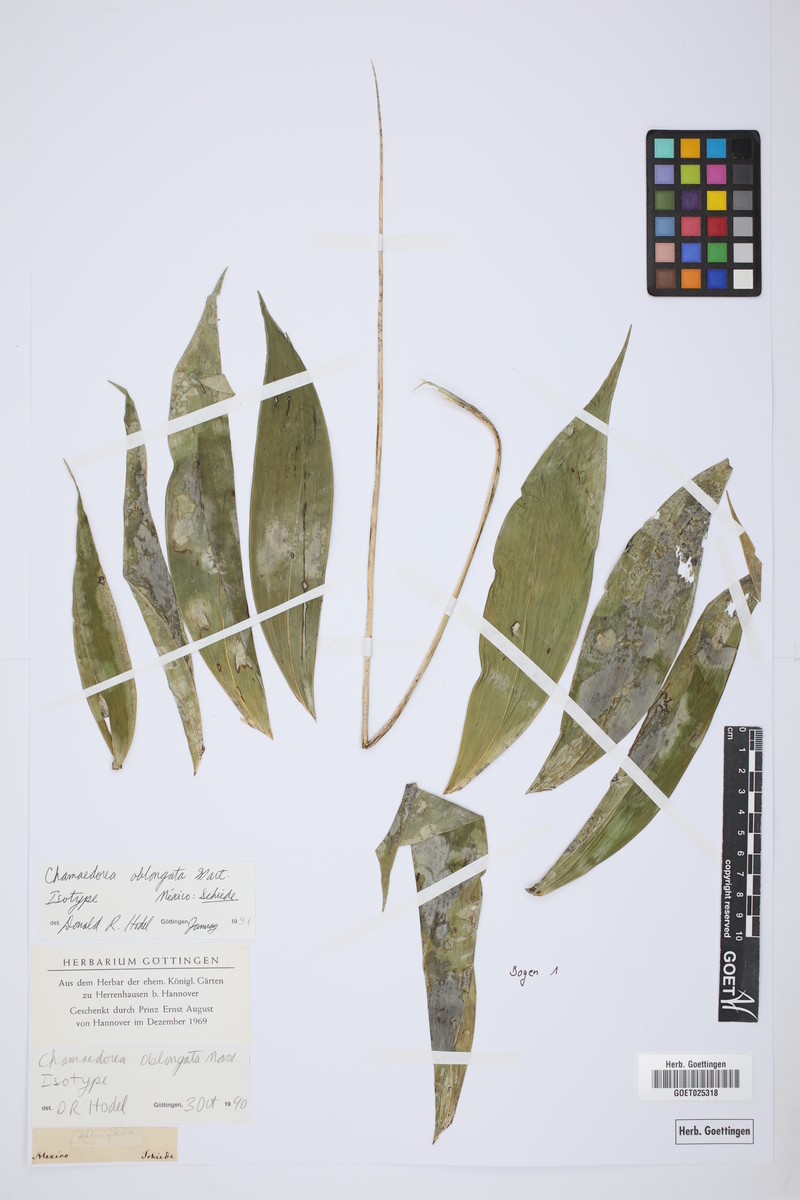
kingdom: Plantae
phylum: Tracheophyta
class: Liliopsida
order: Arecales
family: Arecaceae
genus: Chamaedorea
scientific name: Chamaedorea oblongata
